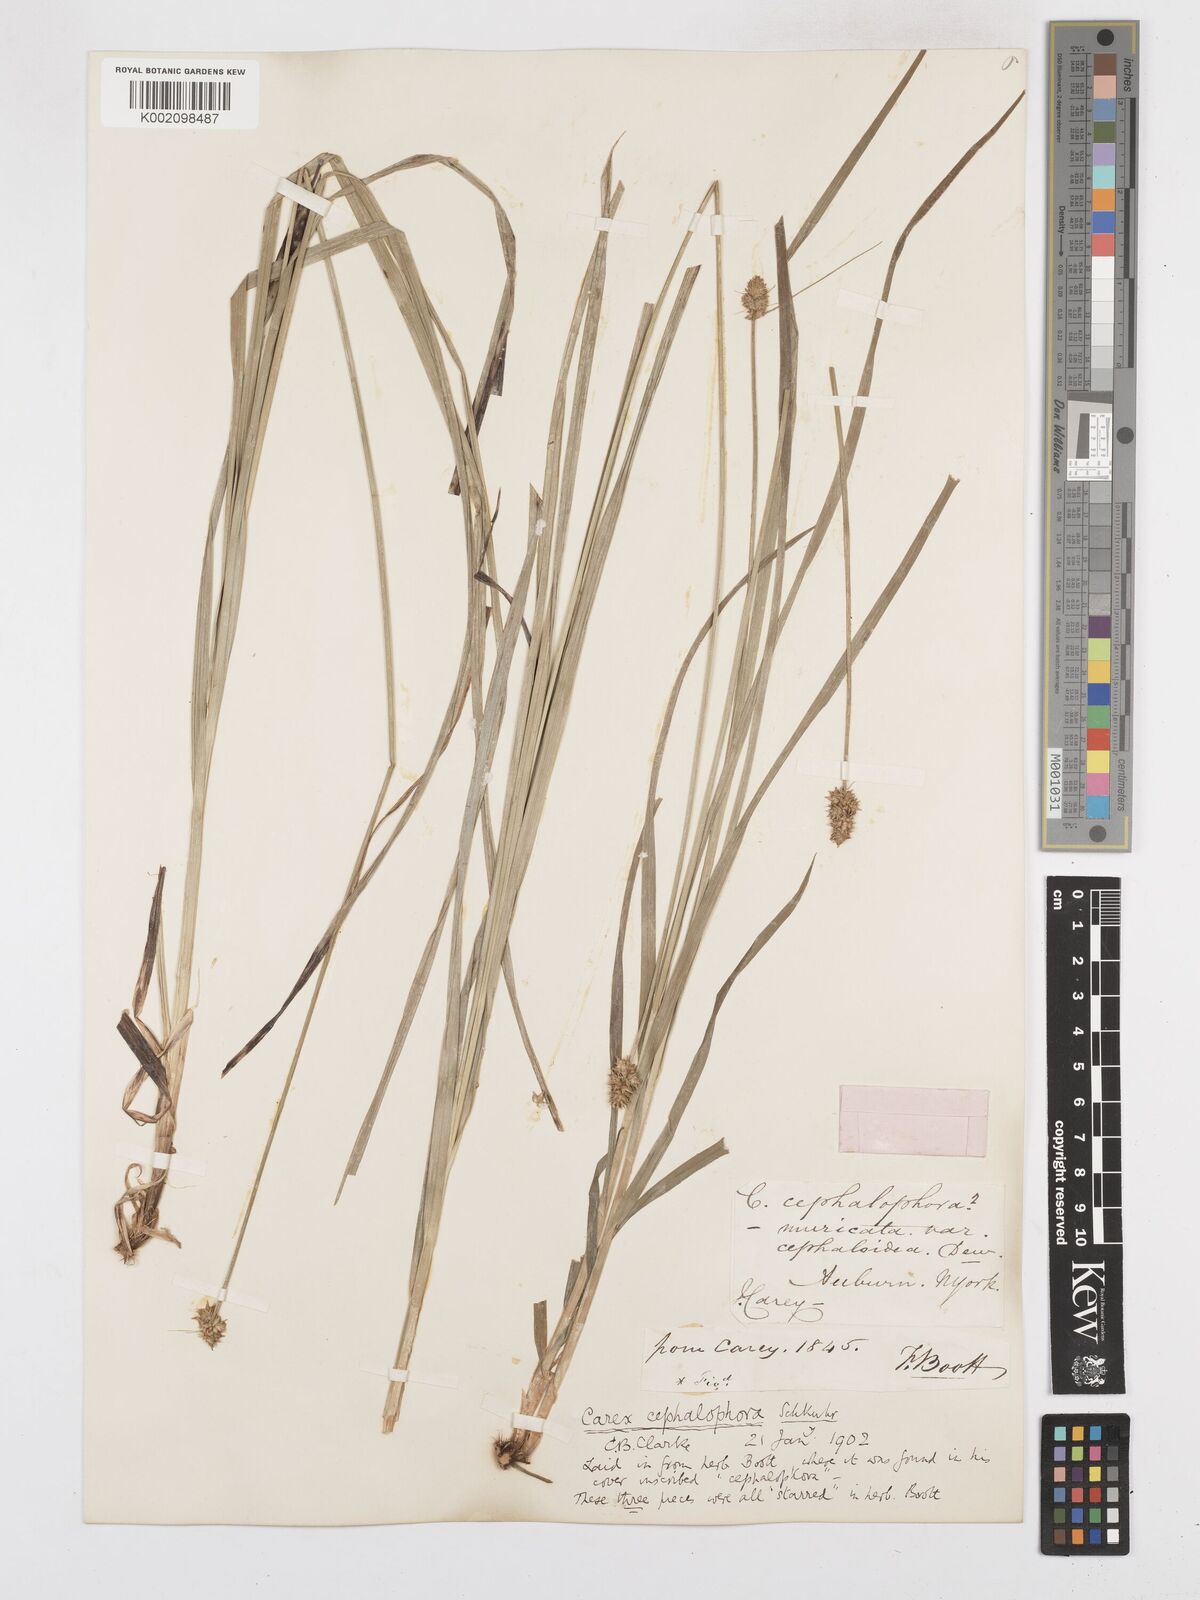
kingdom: Plantae
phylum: Tracheophyta
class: Liliopsida
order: Poales
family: Cyperaceae
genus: Carex
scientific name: Carex cephalophora
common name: Oval-headed sedge
